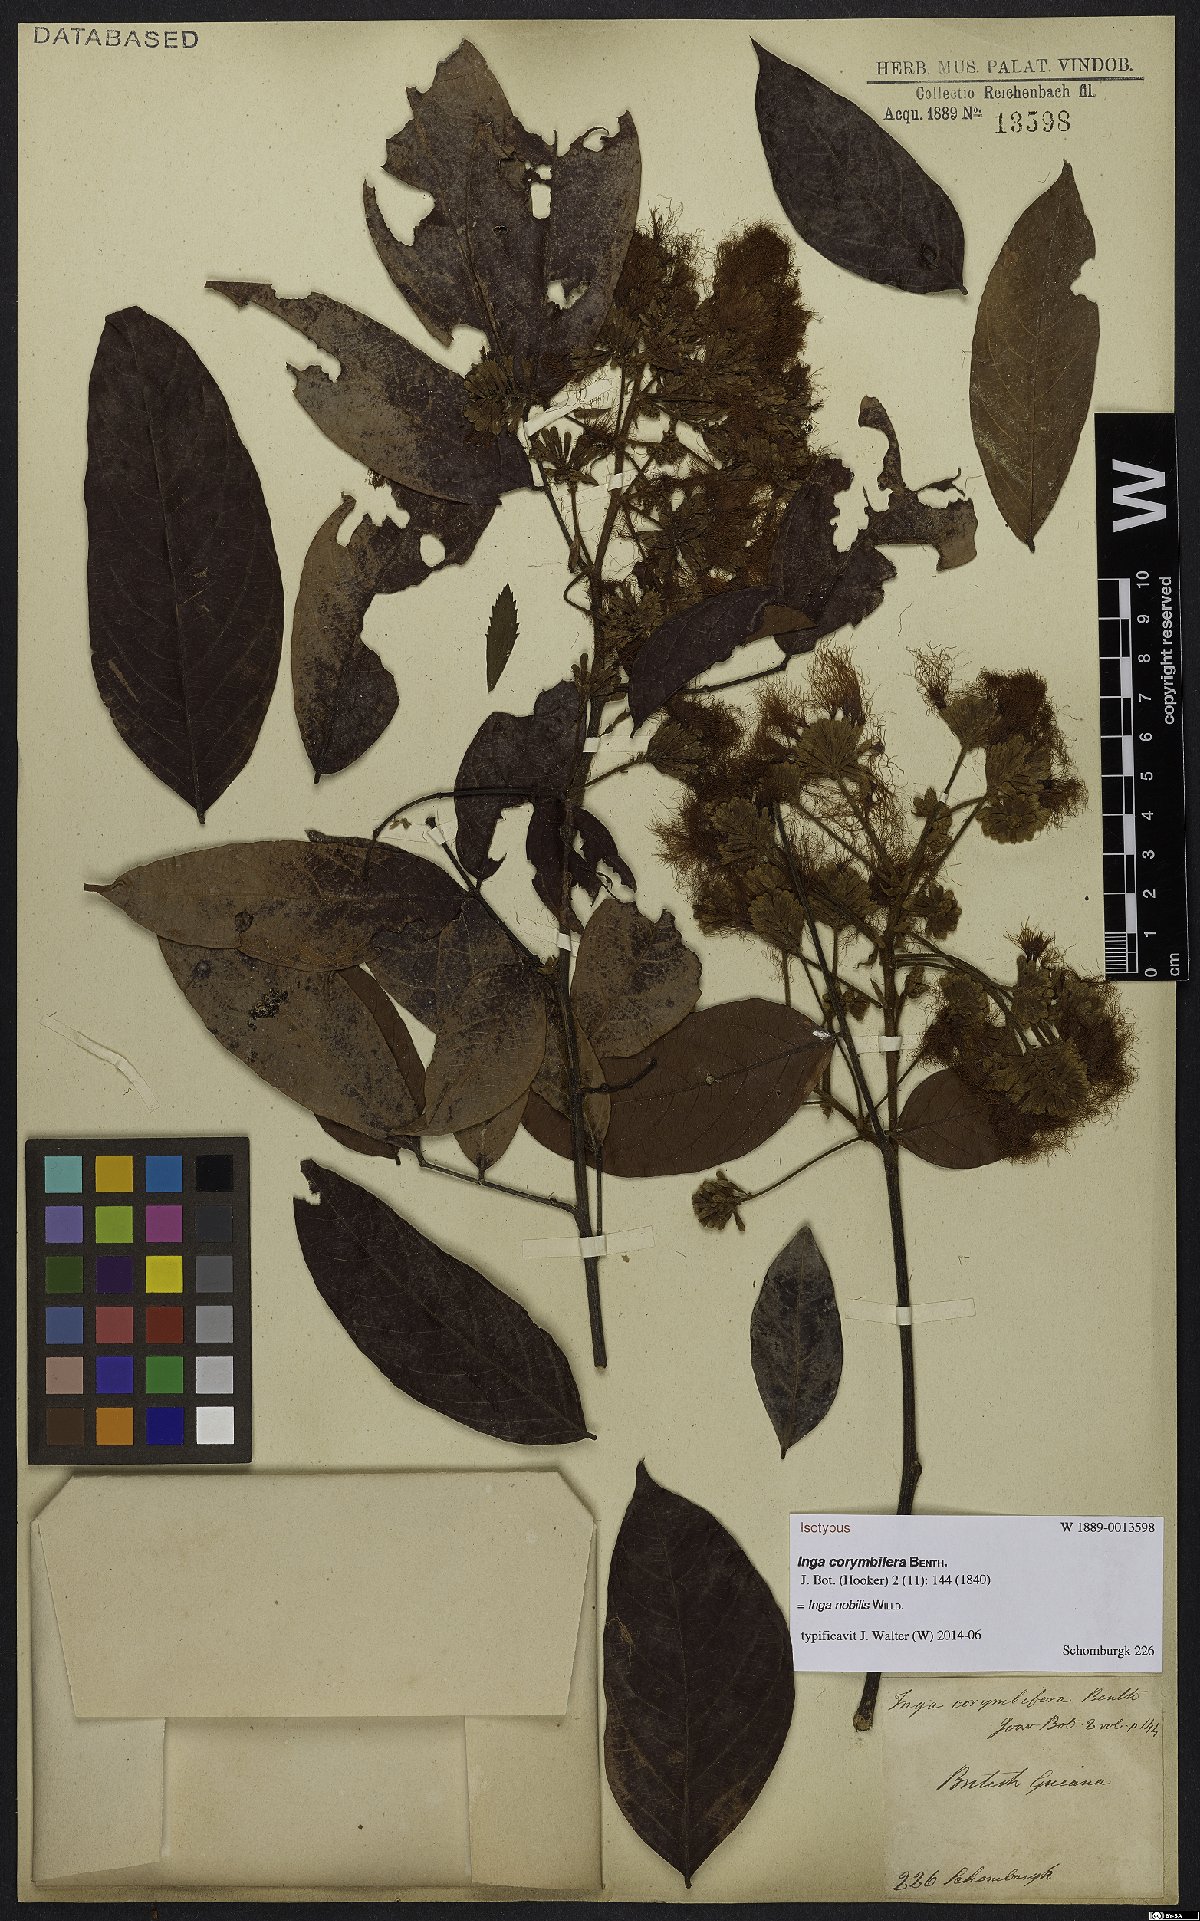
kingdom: Plantae
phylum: Tracheophyta
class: Magnoliopsida
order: Fabales
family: Fabaceae
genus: Inga
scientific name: Inga nobilis
